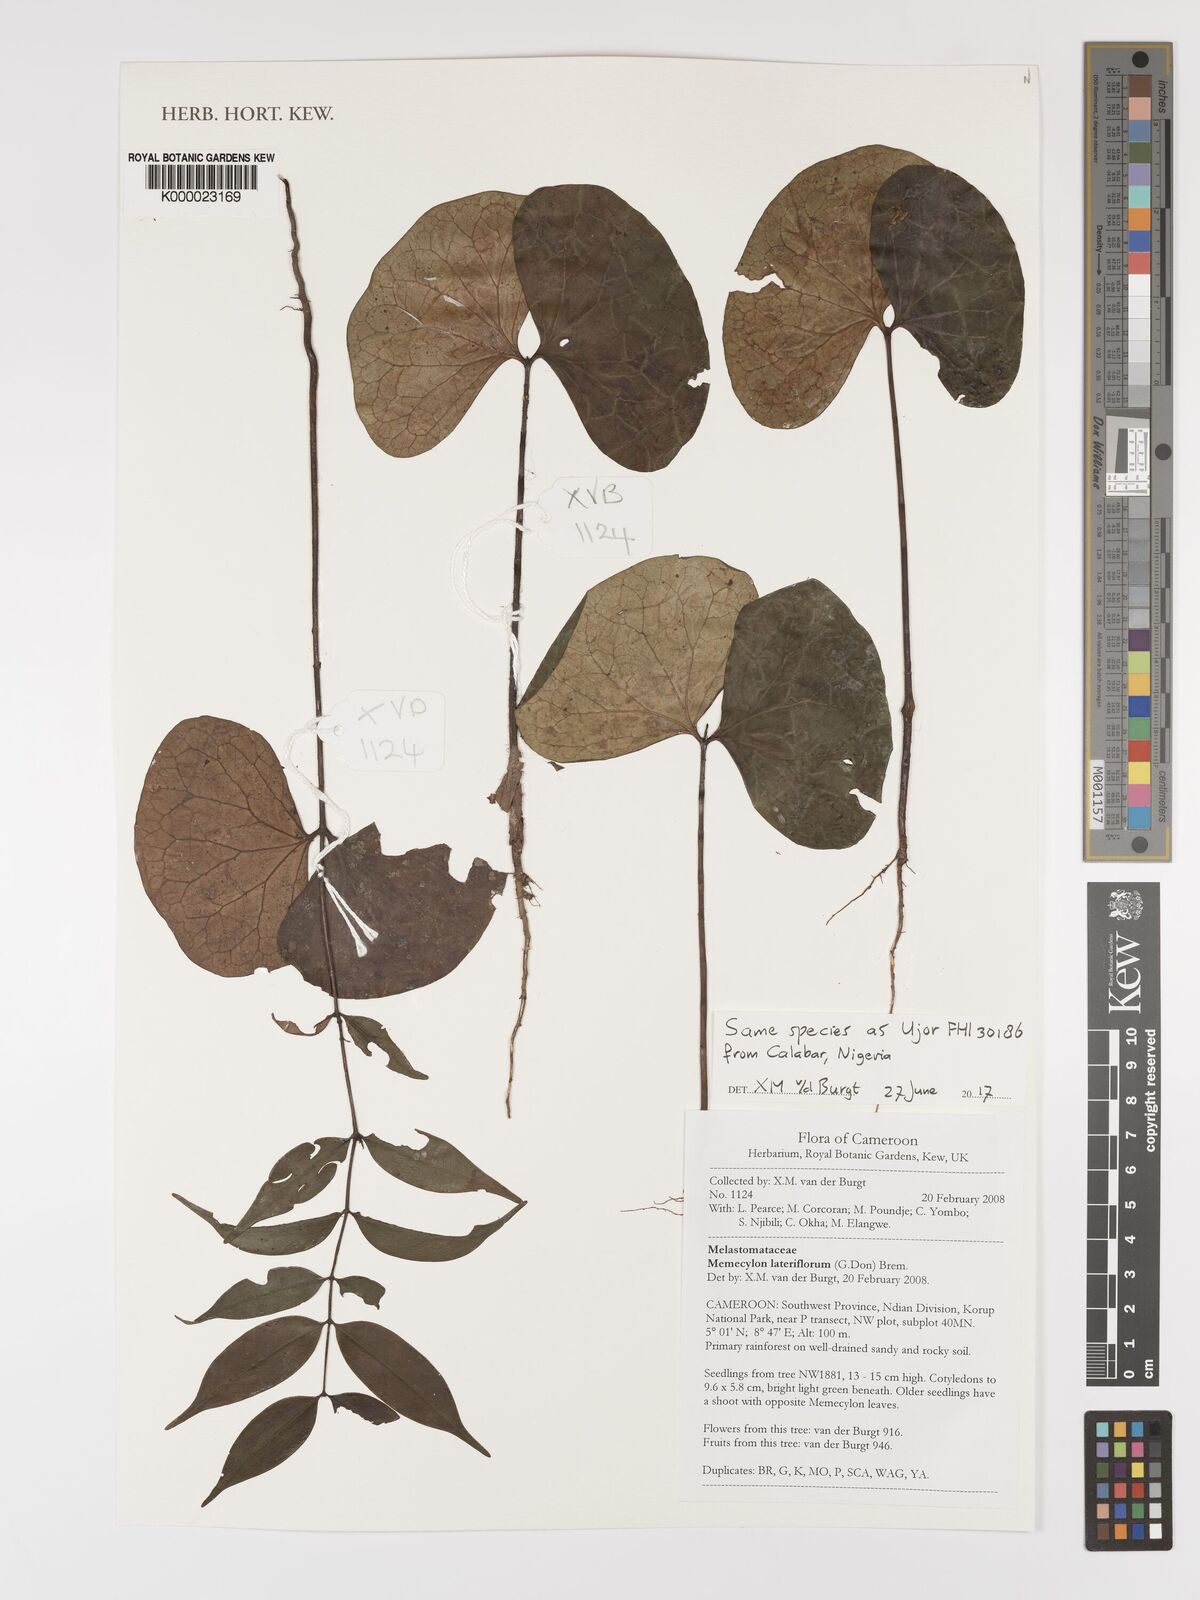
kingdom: Plantae
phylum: Tracheophyta
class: Magnoliopsida
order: Myrtales
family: Melastomataceae
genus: Memecylon
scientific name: Memecylon lateriflorum
